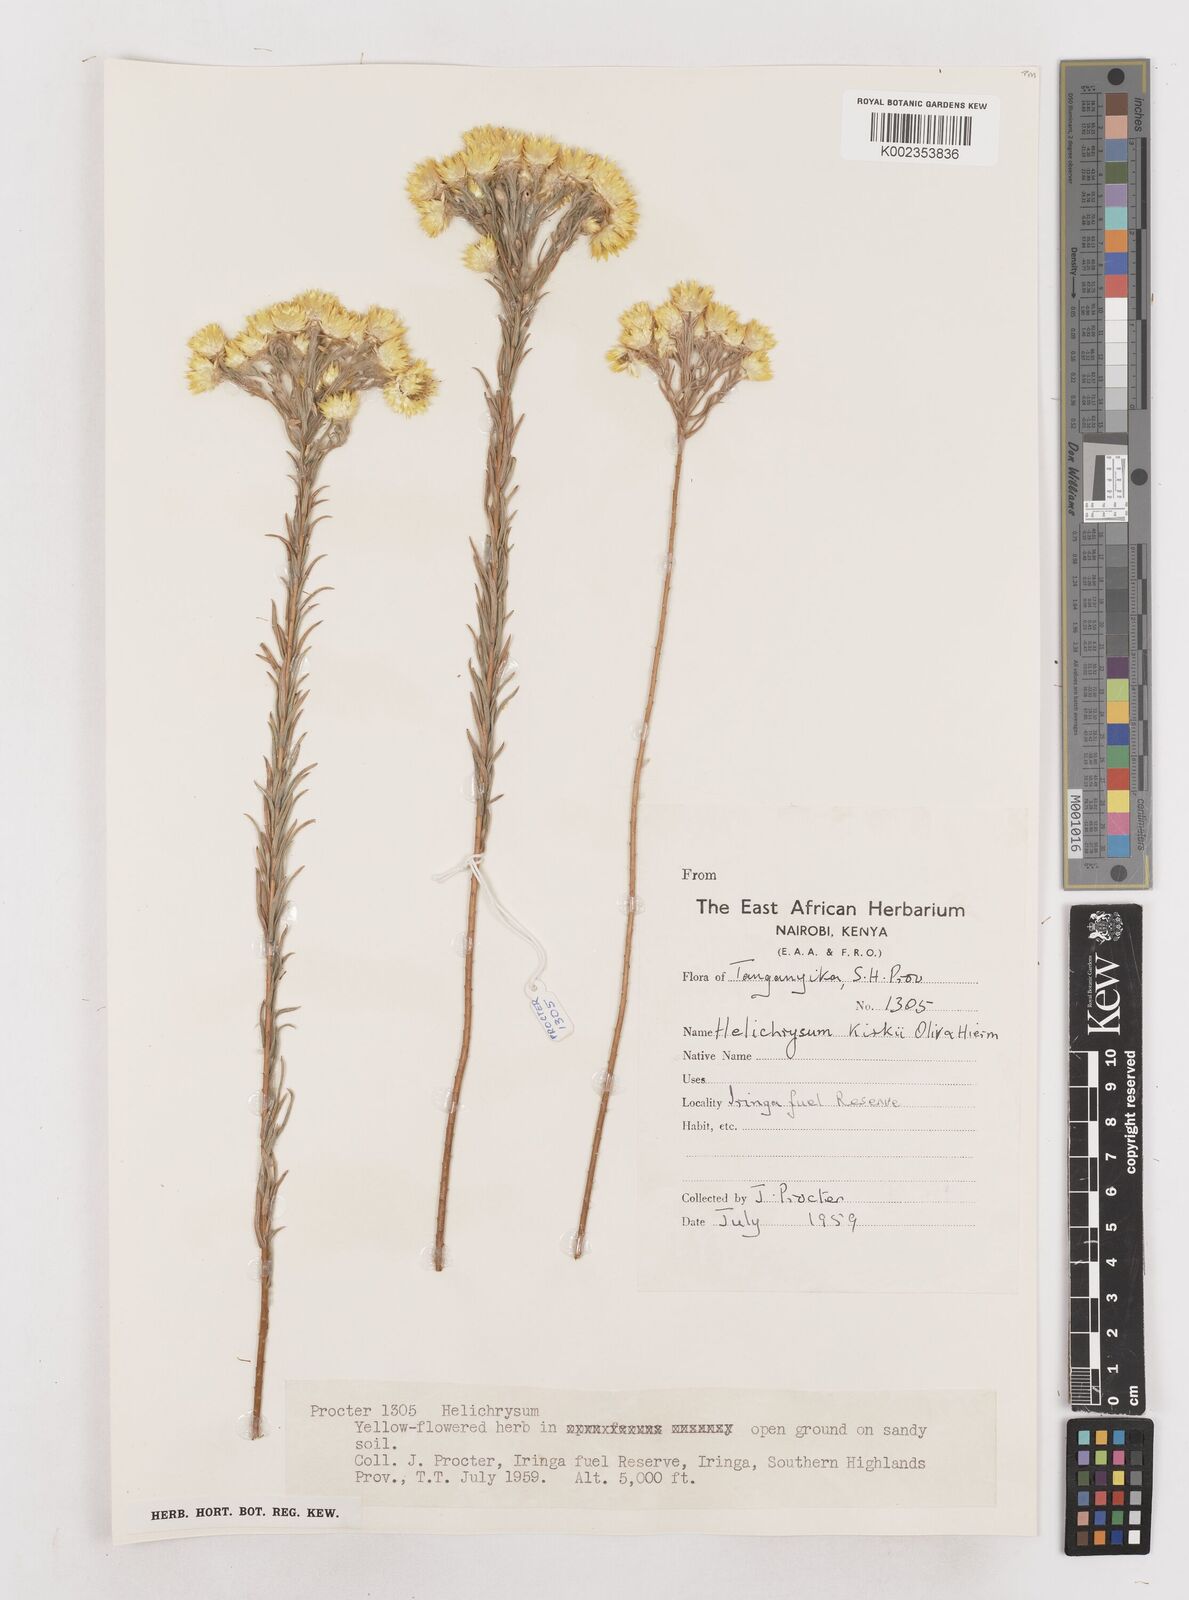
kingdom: Plantae
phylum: Tracheophyta
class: Magnoliopsida
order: Asterales
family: Asteraceae
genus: Helichrysum
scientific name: Helichrysum kirkii
